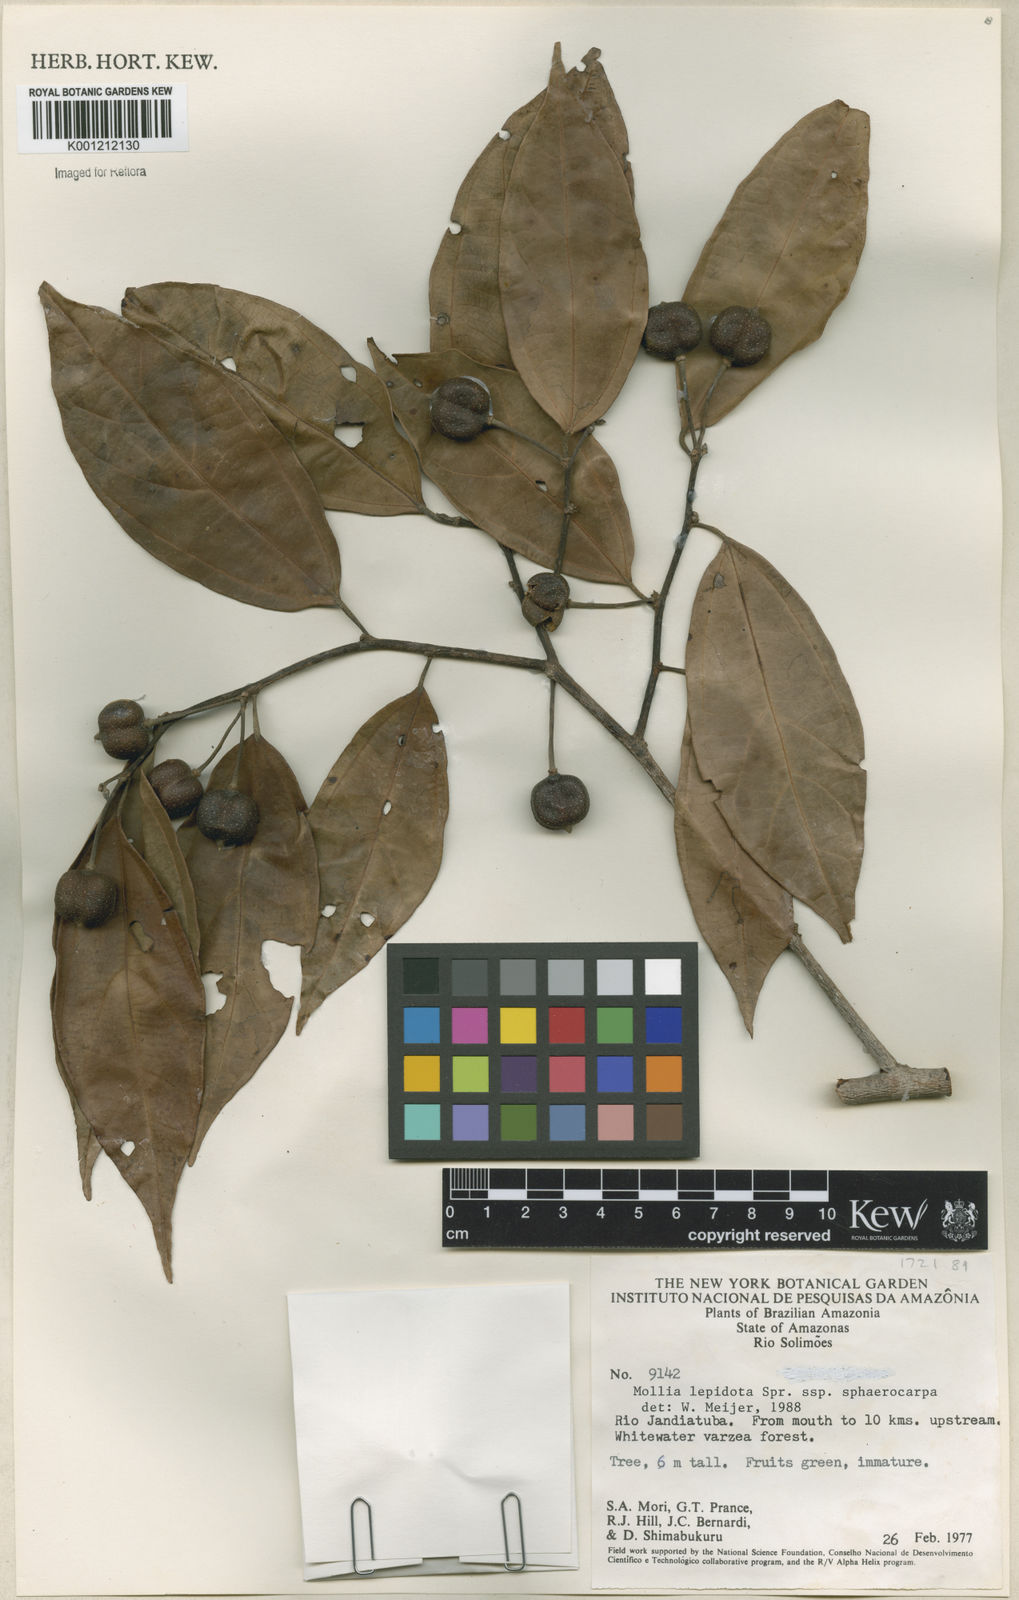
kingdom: Plantae
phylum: Tracheophyta
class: Magnoliopsida
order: Malvales
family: Malvaceae
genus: Mollia
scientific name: Mollia lepidota
